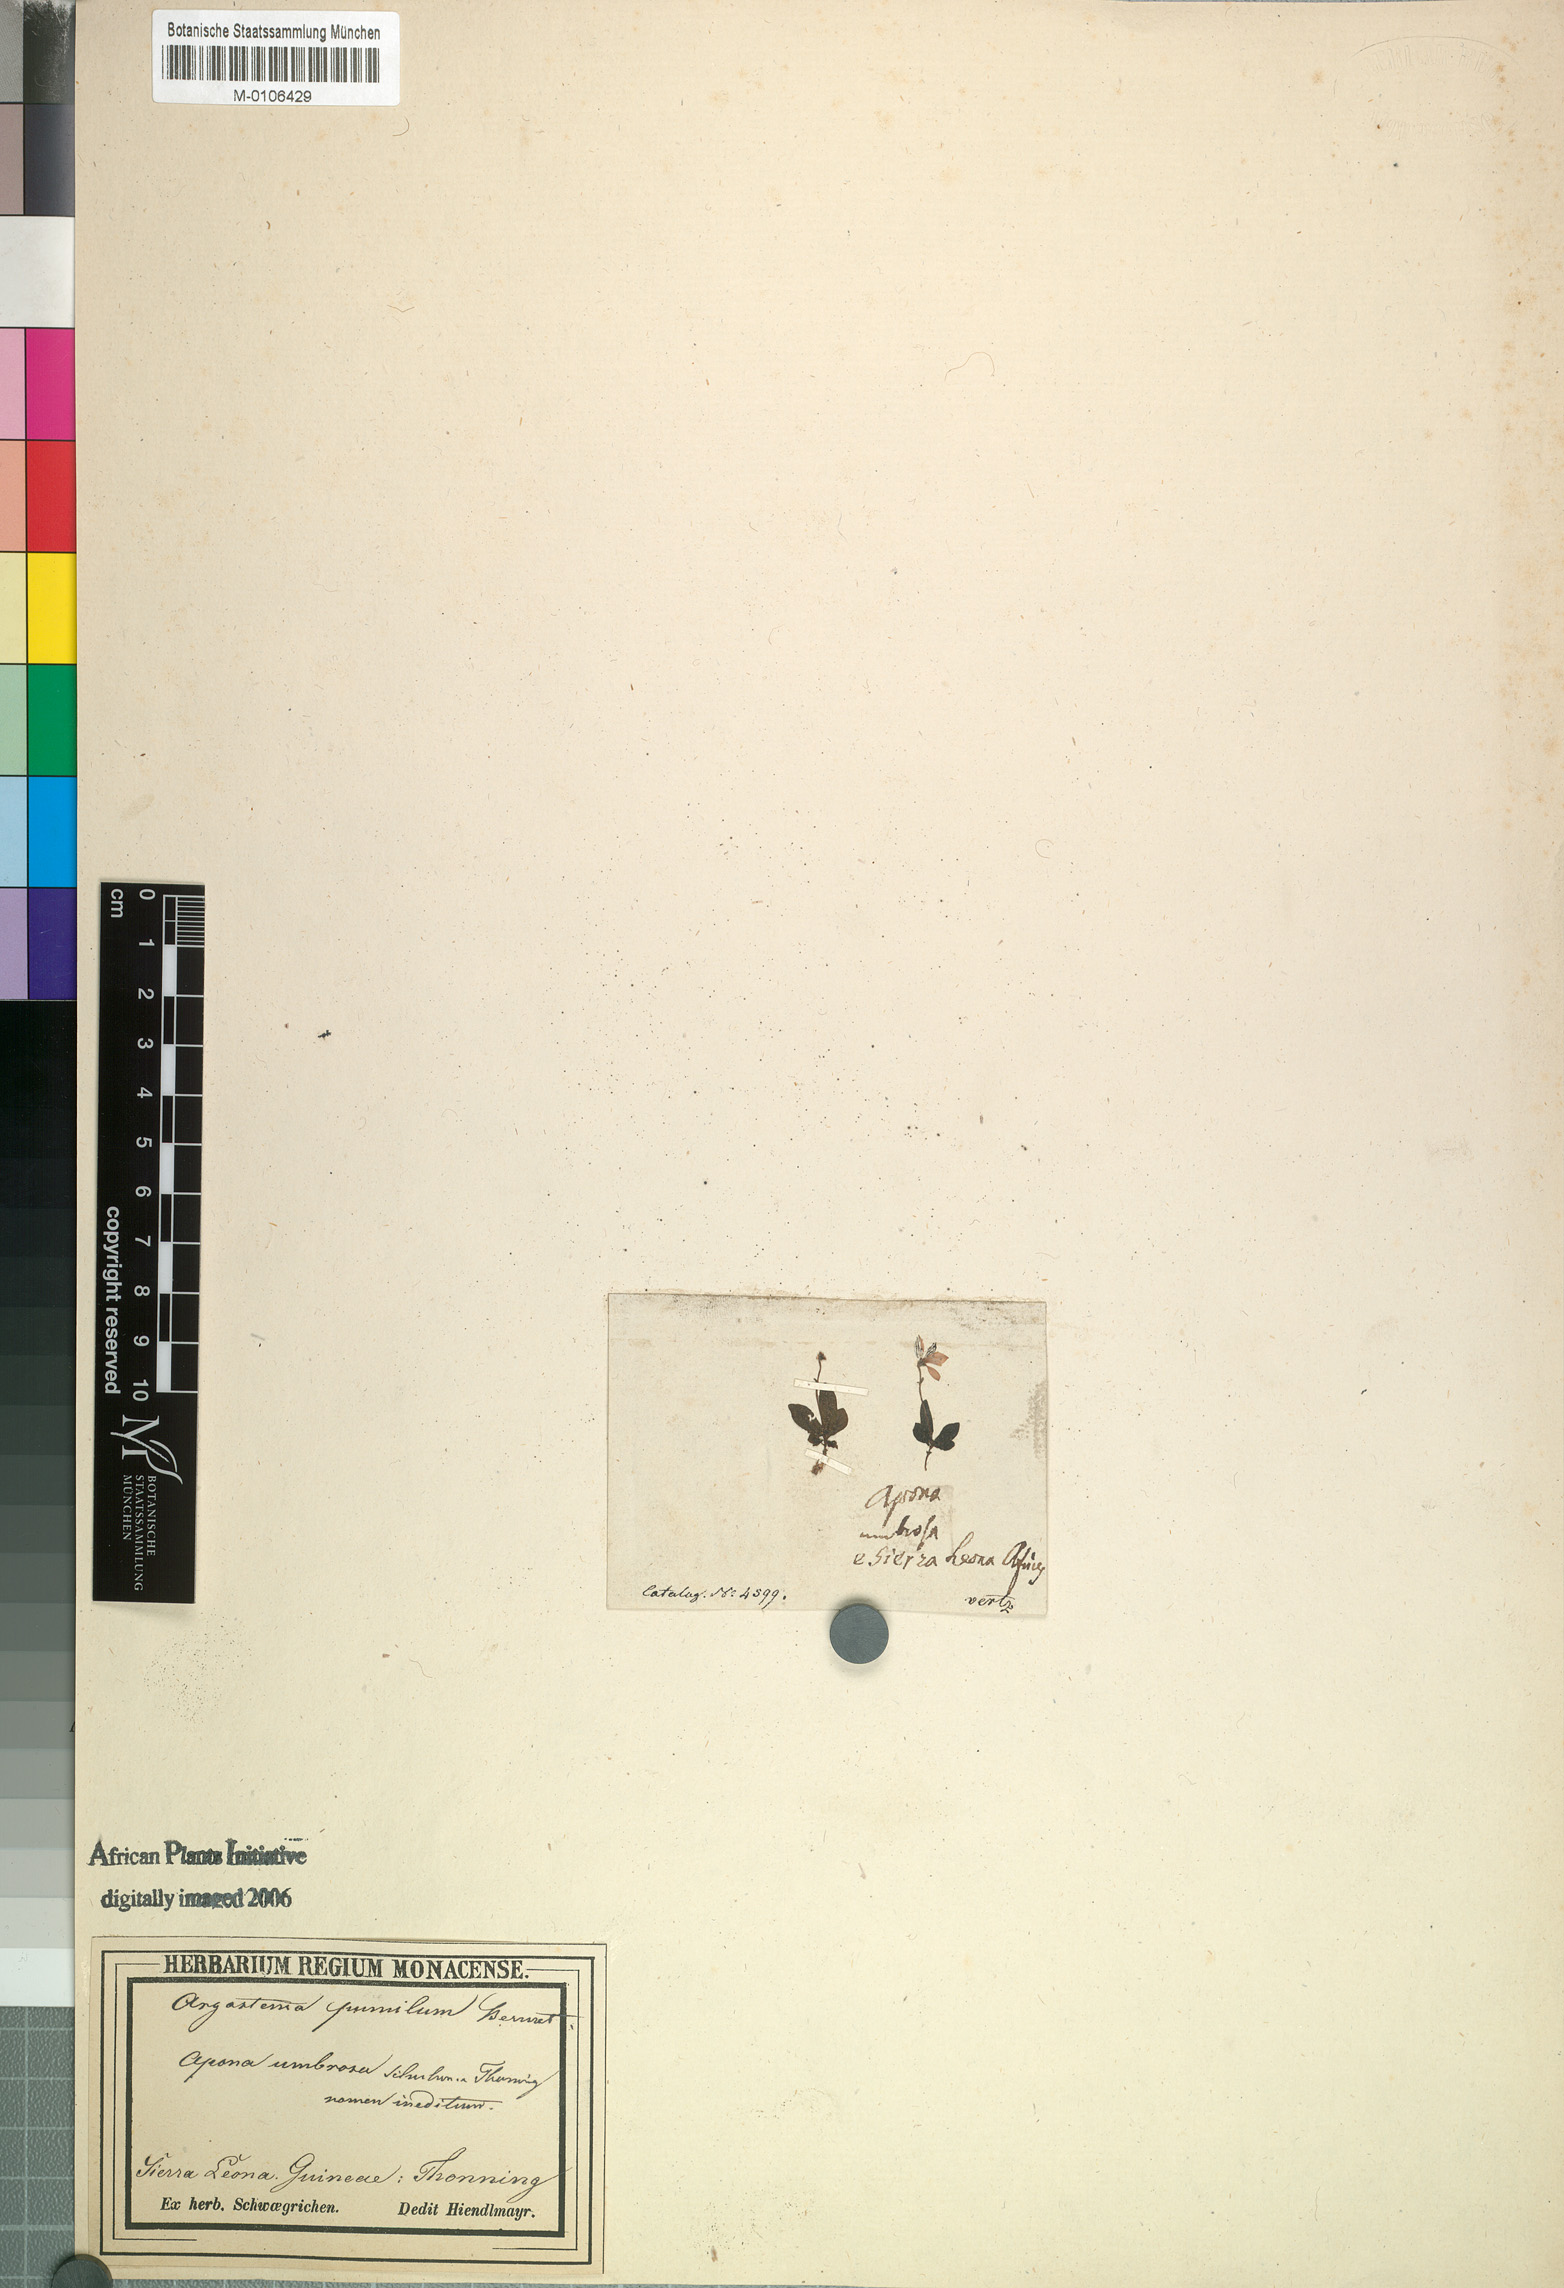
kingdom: Plantae
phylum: Tracheophyta
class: Magnoliopsida
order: Gentianales
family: Rubiaceae
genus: Argostemma
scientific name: Argostemma pumilum
